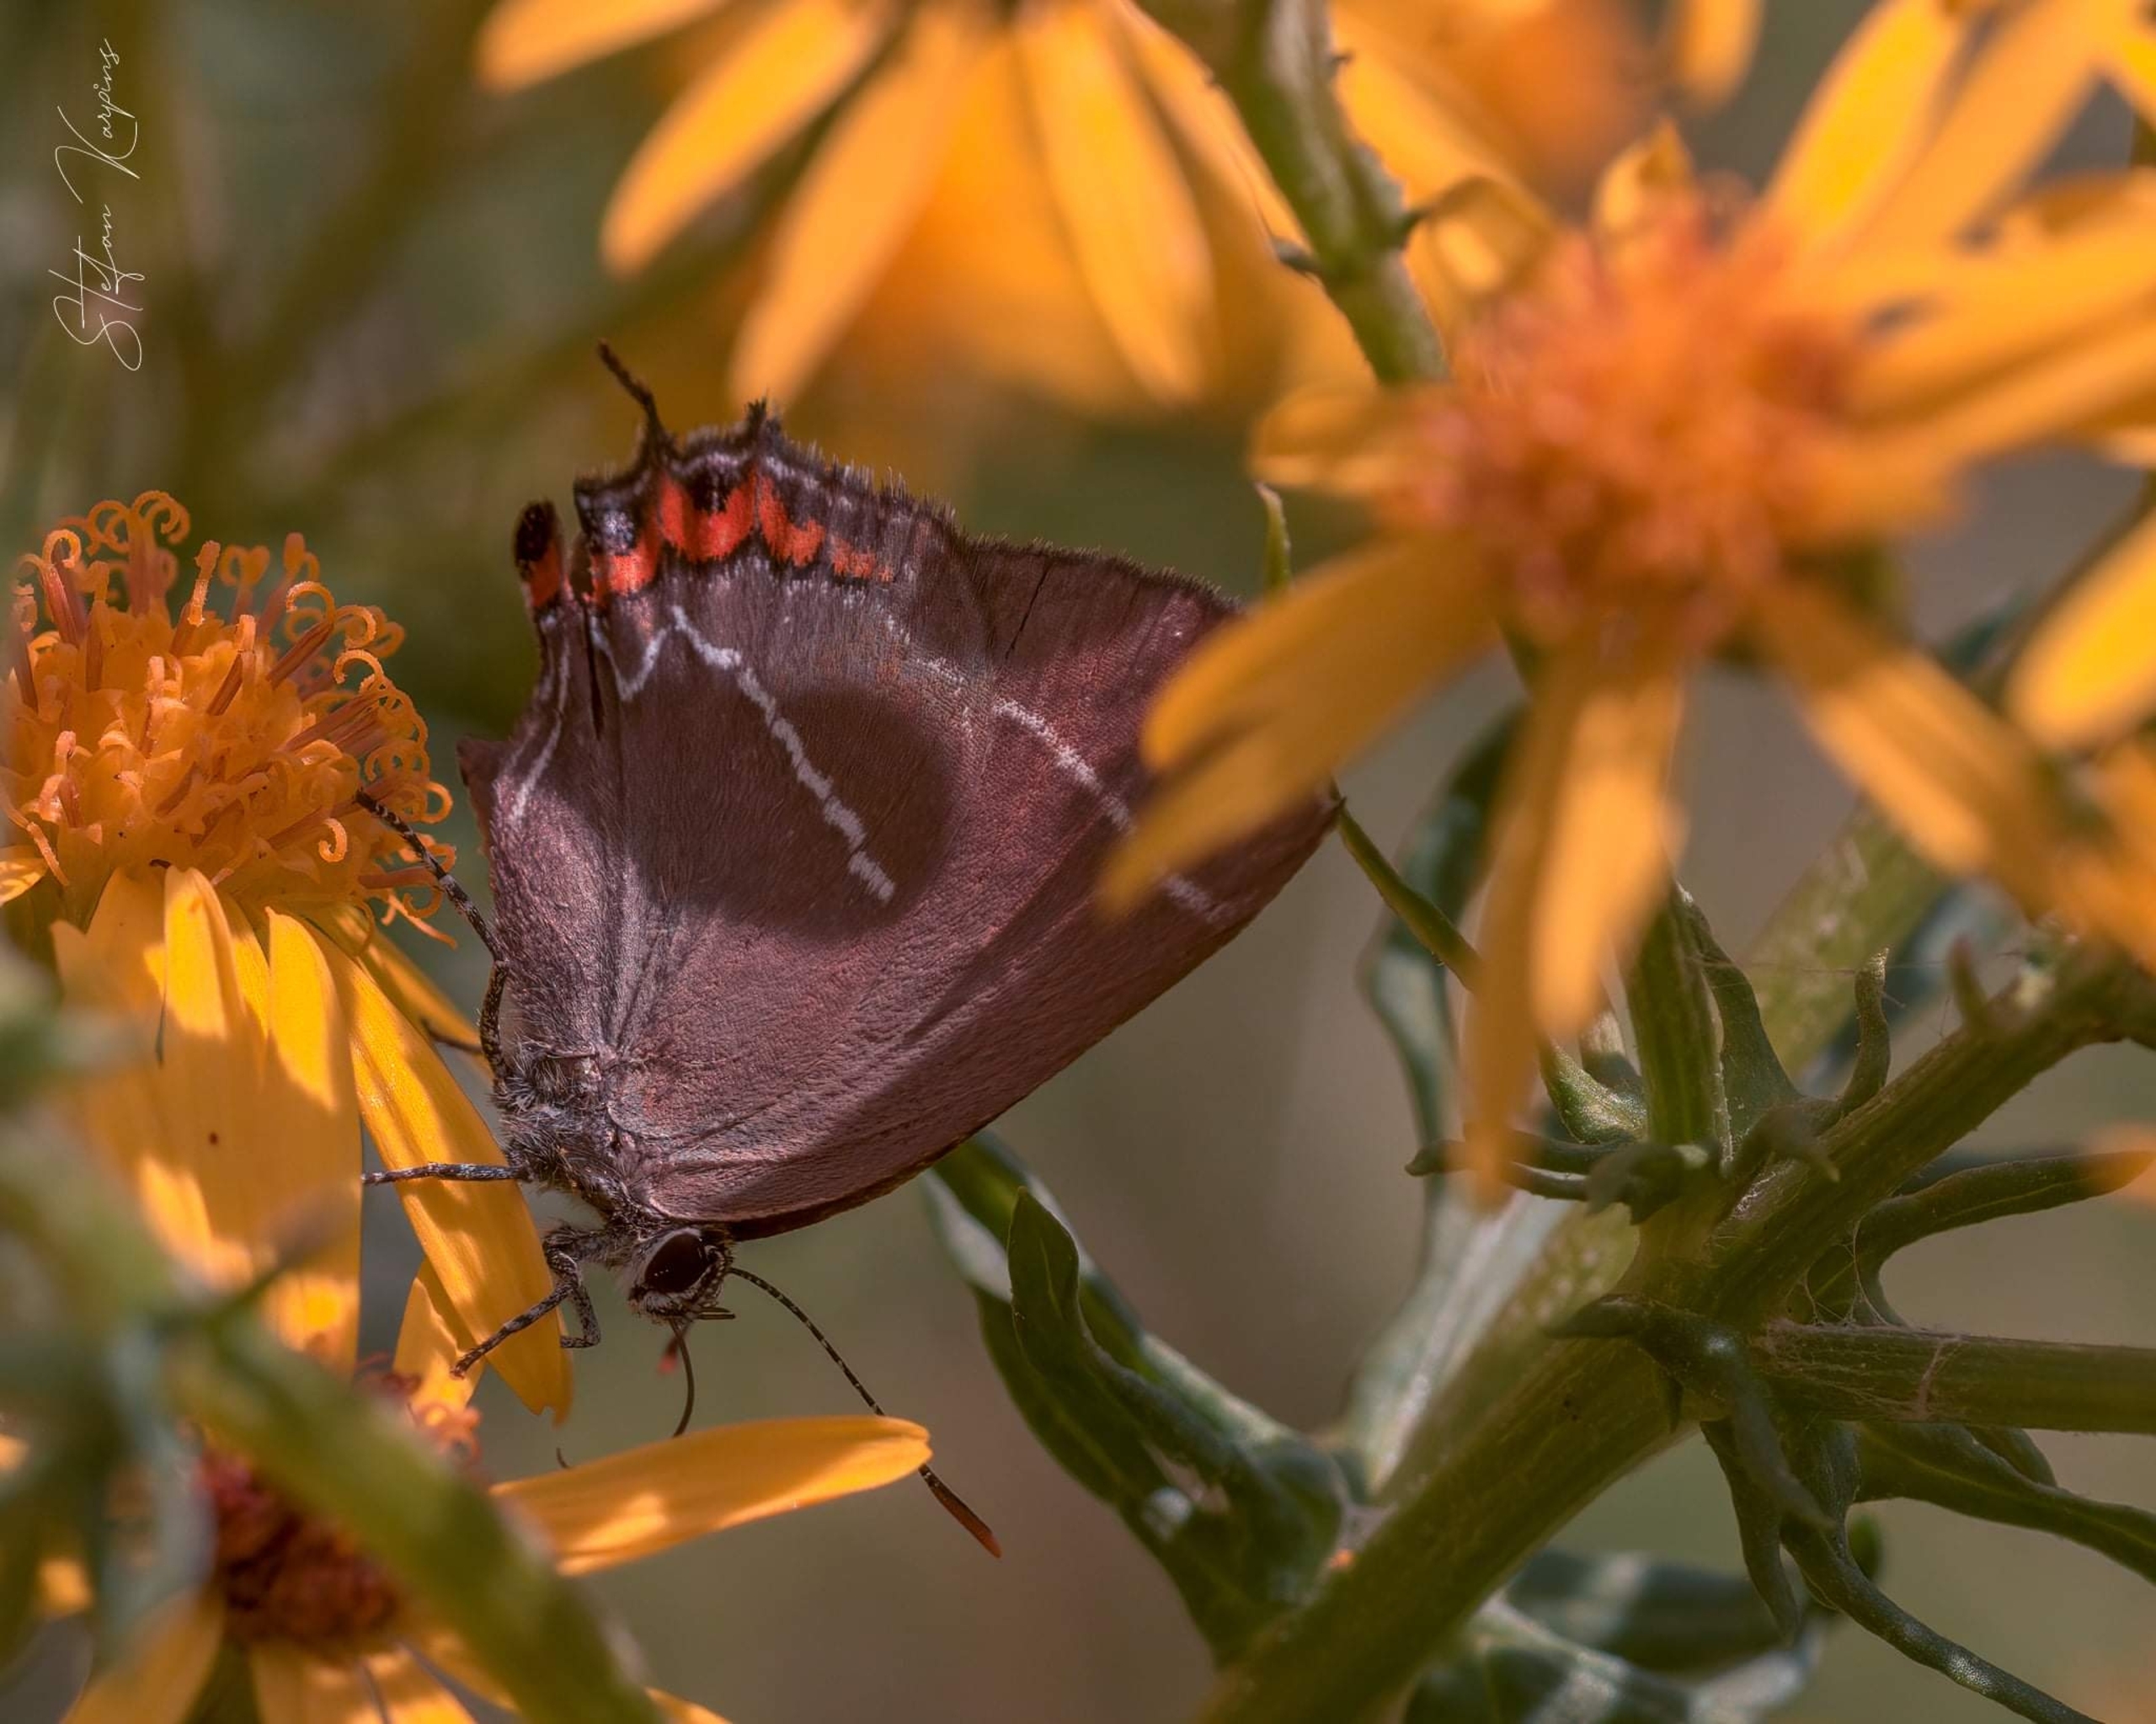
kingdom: Animalia
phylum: Arthropoda
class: Insecta
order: Lepidoptera
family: Lycaenidae
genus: Satyrium
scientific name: Satyrium w-album
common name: Det hvide W
